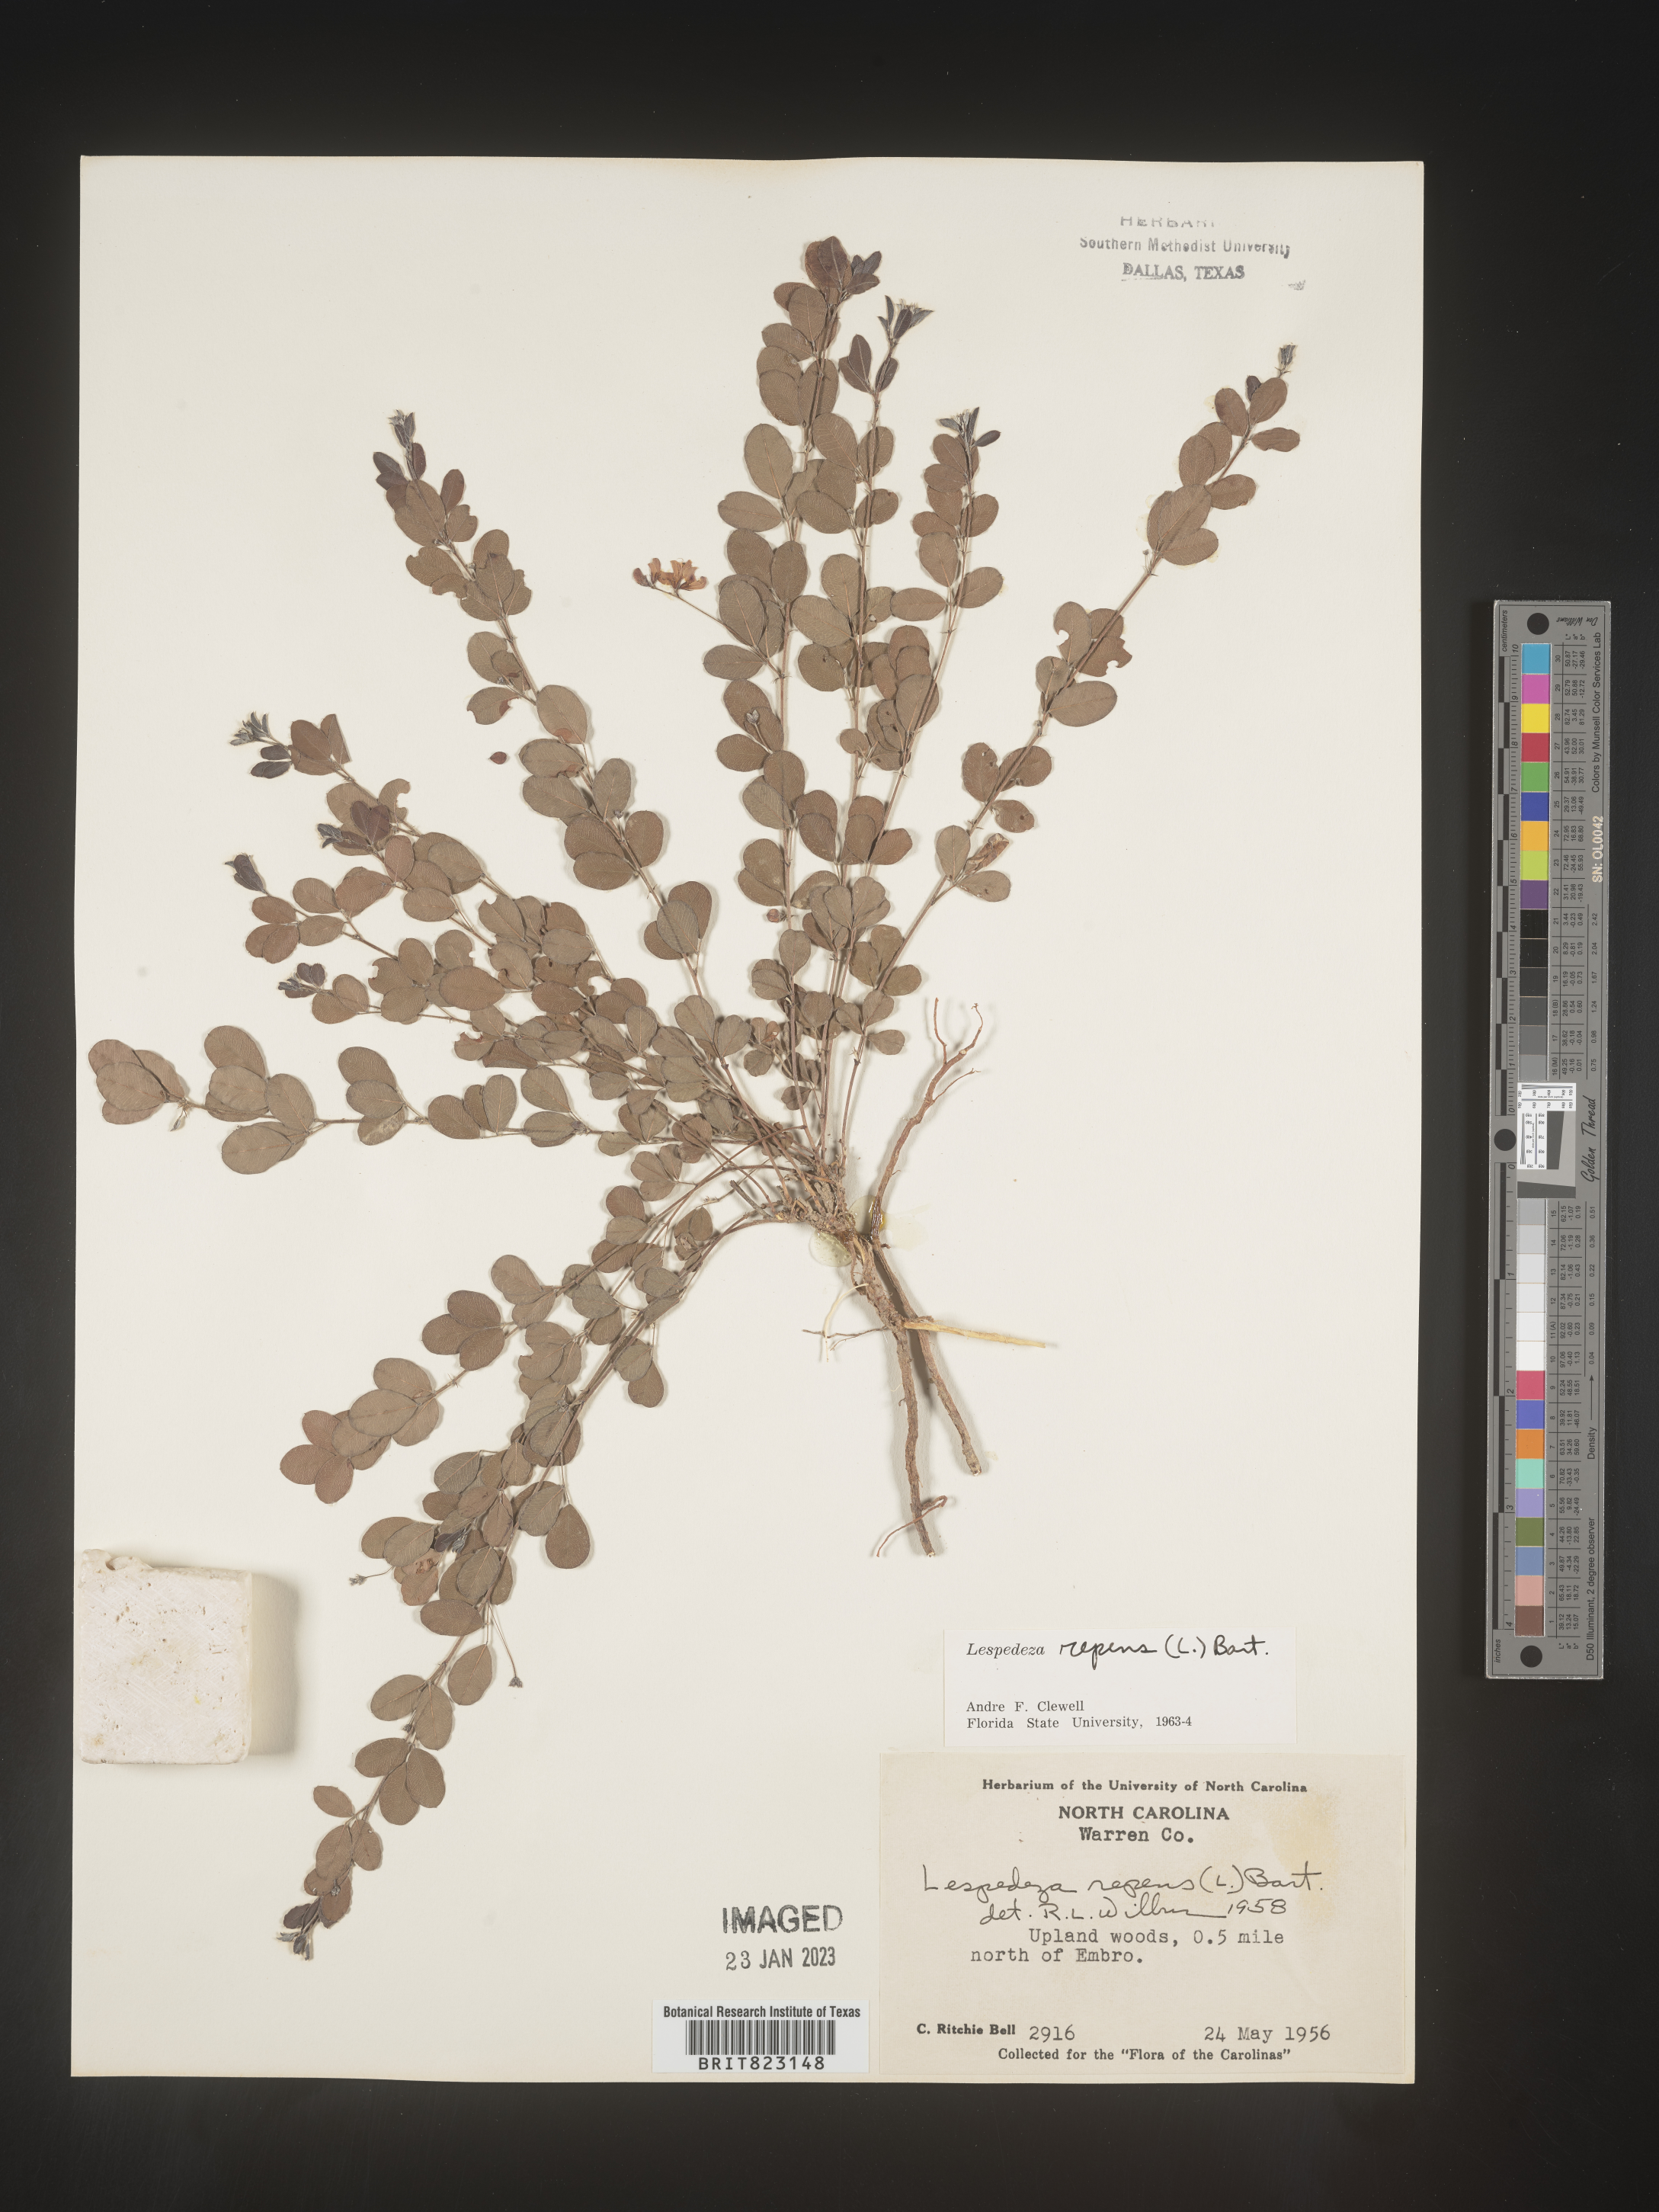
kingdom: Plantae
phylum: Tracheophyta
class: Magnoliopsida
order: Fabales
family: Fabaceae
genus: Lespedeza
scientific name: Lespedeza repens
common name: Creeping bush-clover
